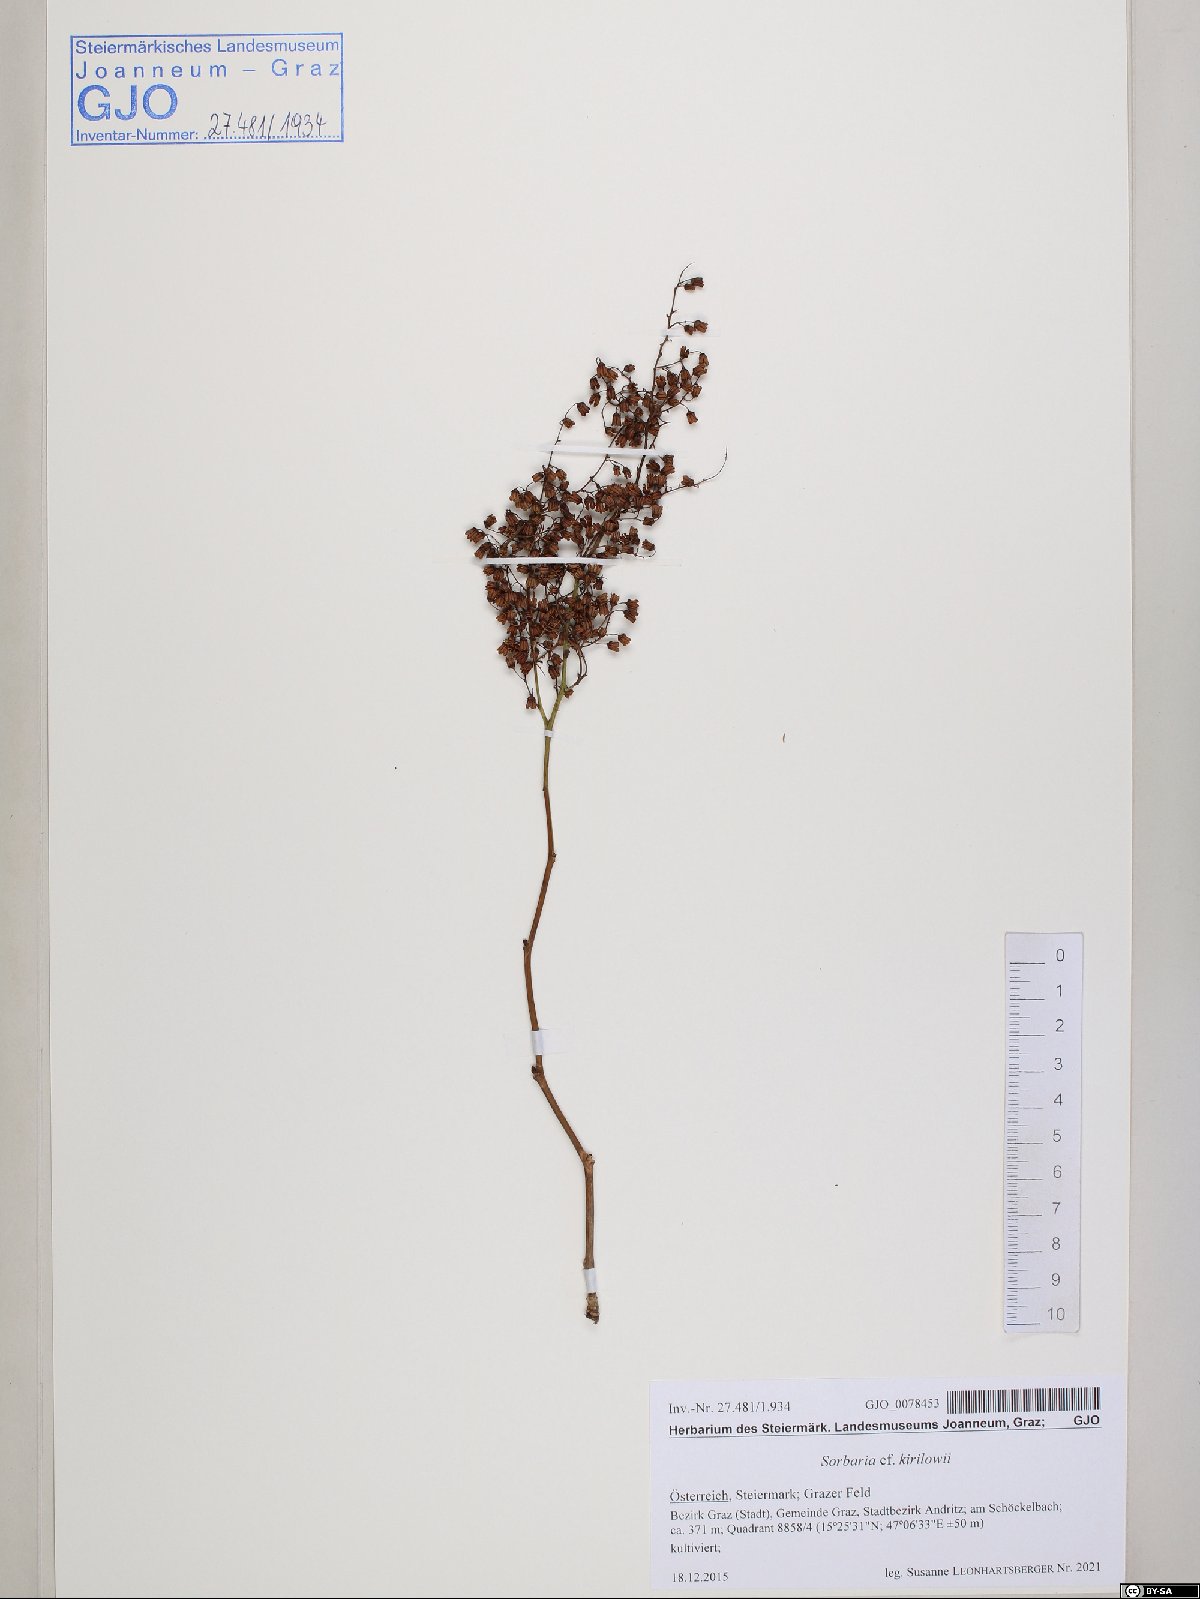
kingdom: Plantae
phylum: Tracheophyta
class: Magnoliopsida
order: Rosales
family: Rosaceae
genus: Sorbaria
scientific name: Sorbaria kirilowii
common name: Chinese sorbaria
